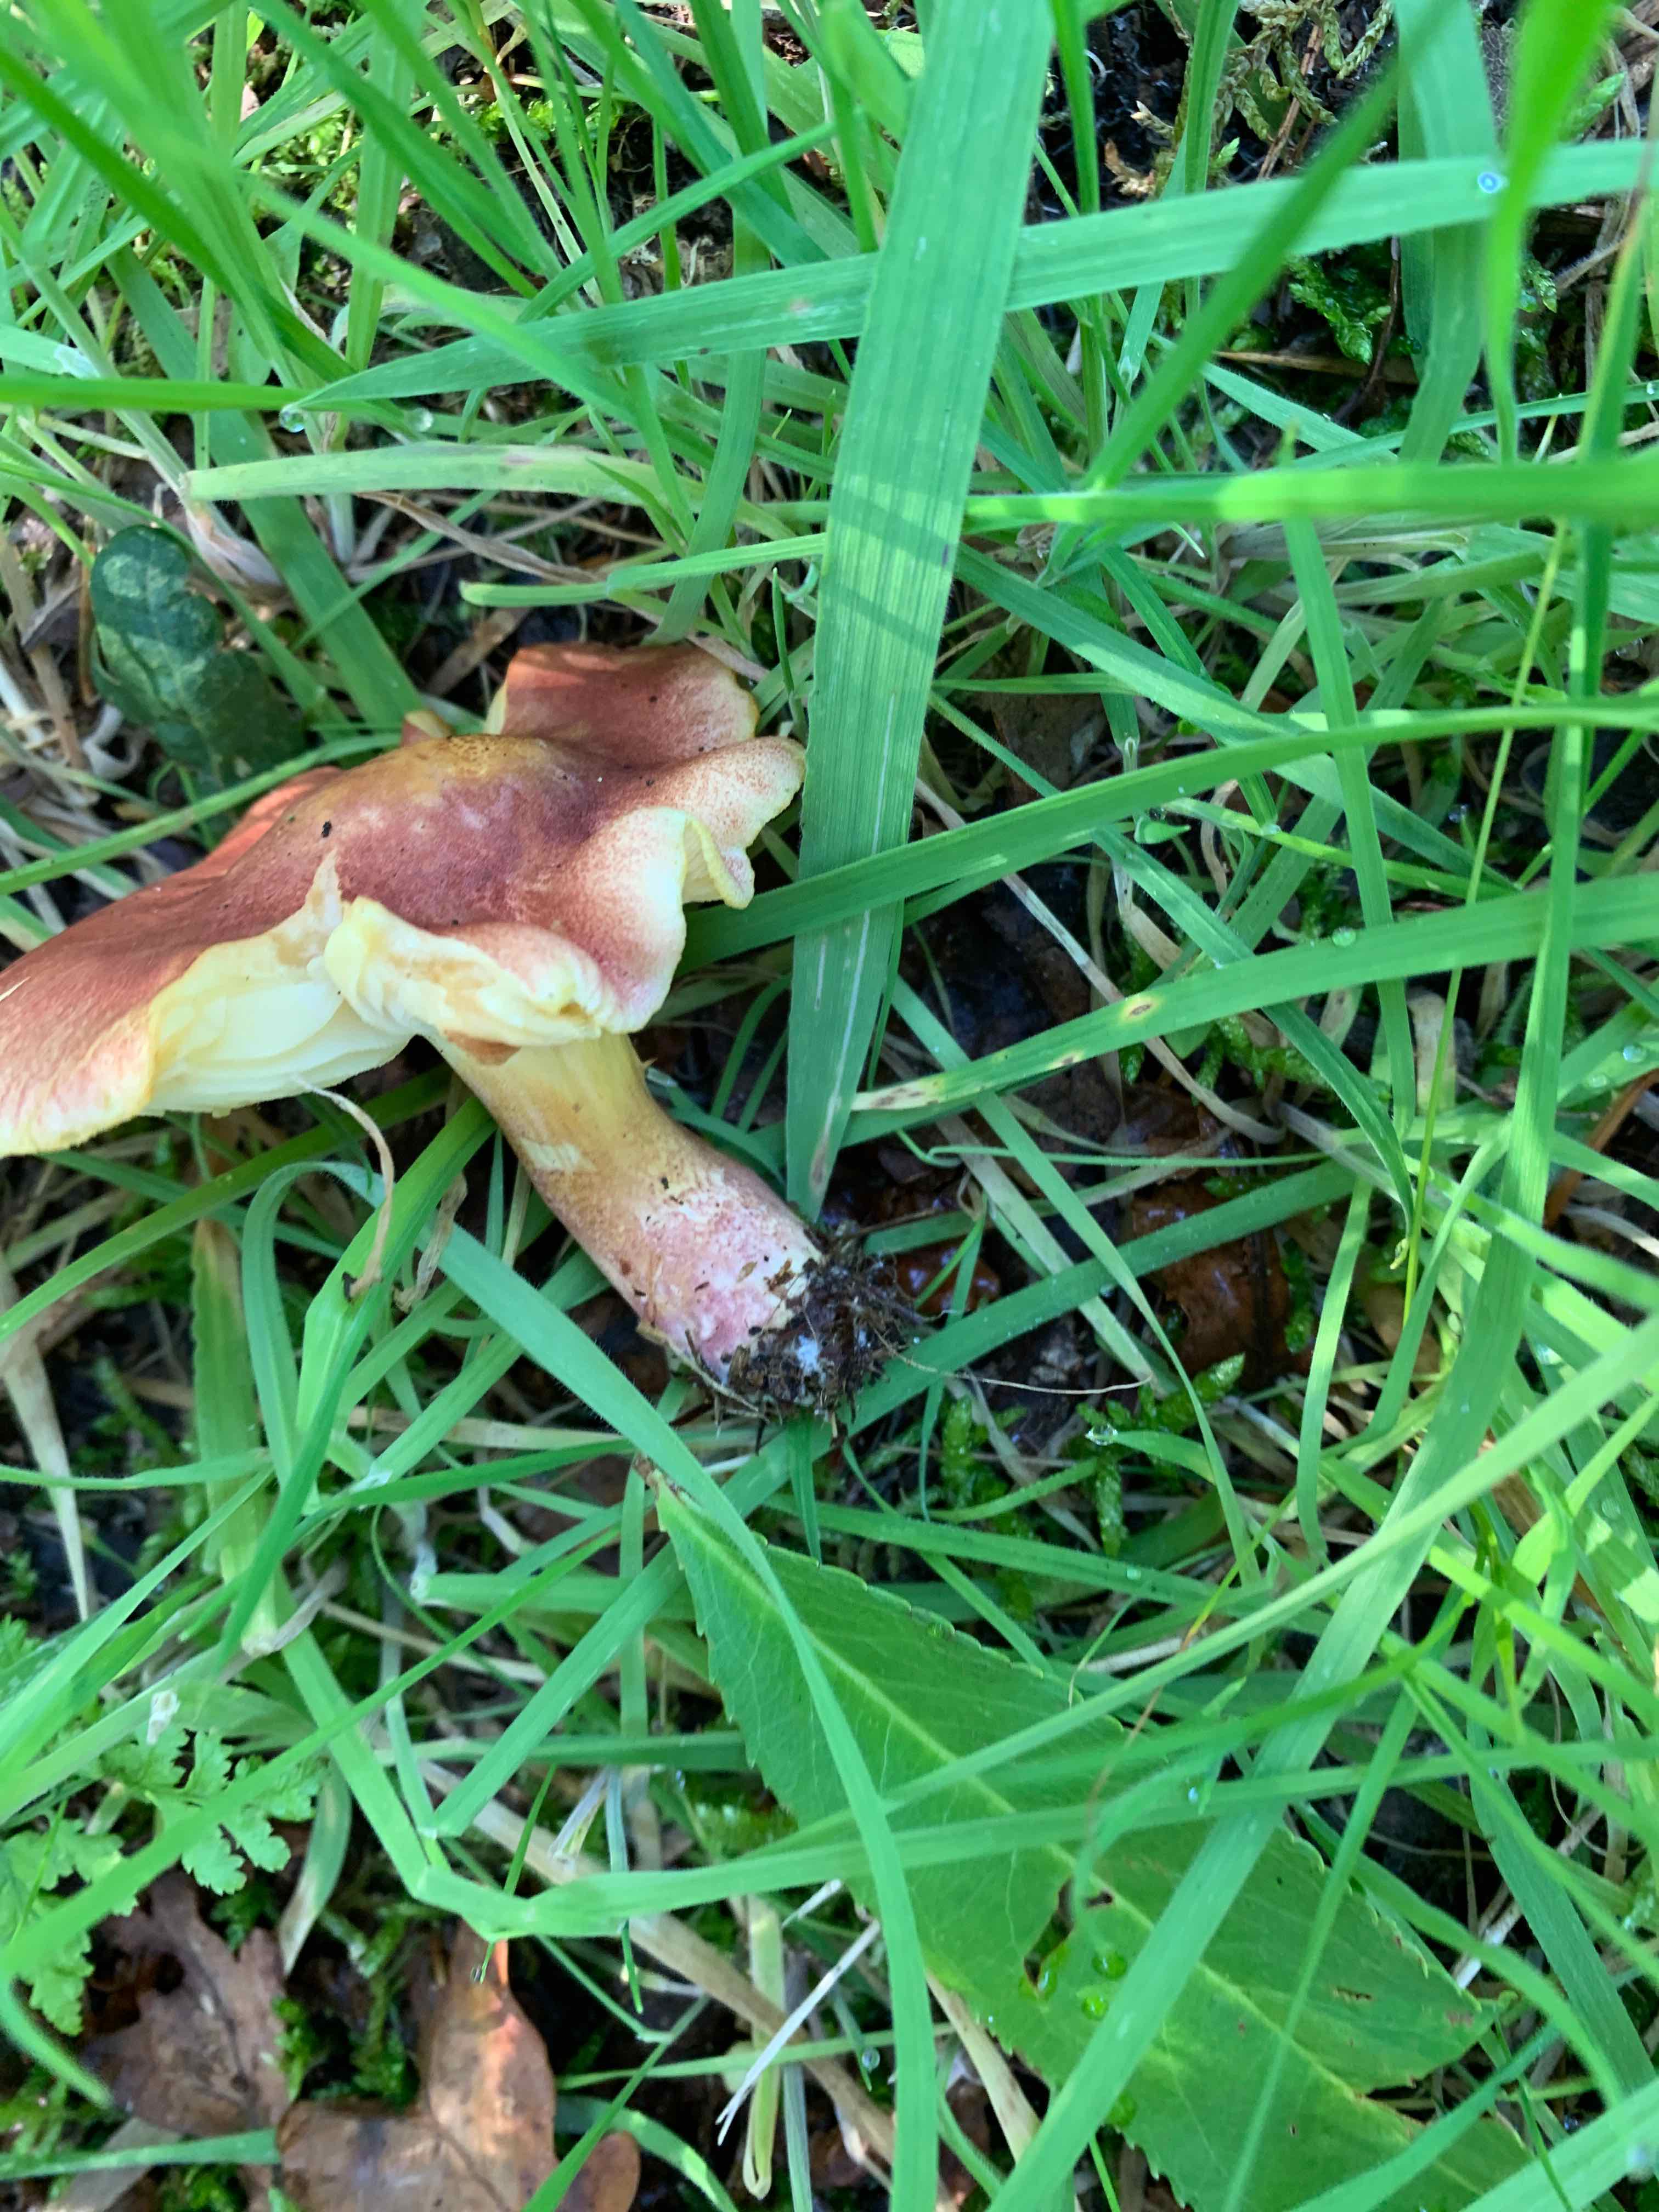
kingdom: Fungi
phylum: Basidiomycota
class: Agaricomycetes
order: Agaricales
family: Tricholomataceae
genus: Tricholomopsis
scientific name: Tricholomopsis rutilans
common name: purpur-væbnerhat
